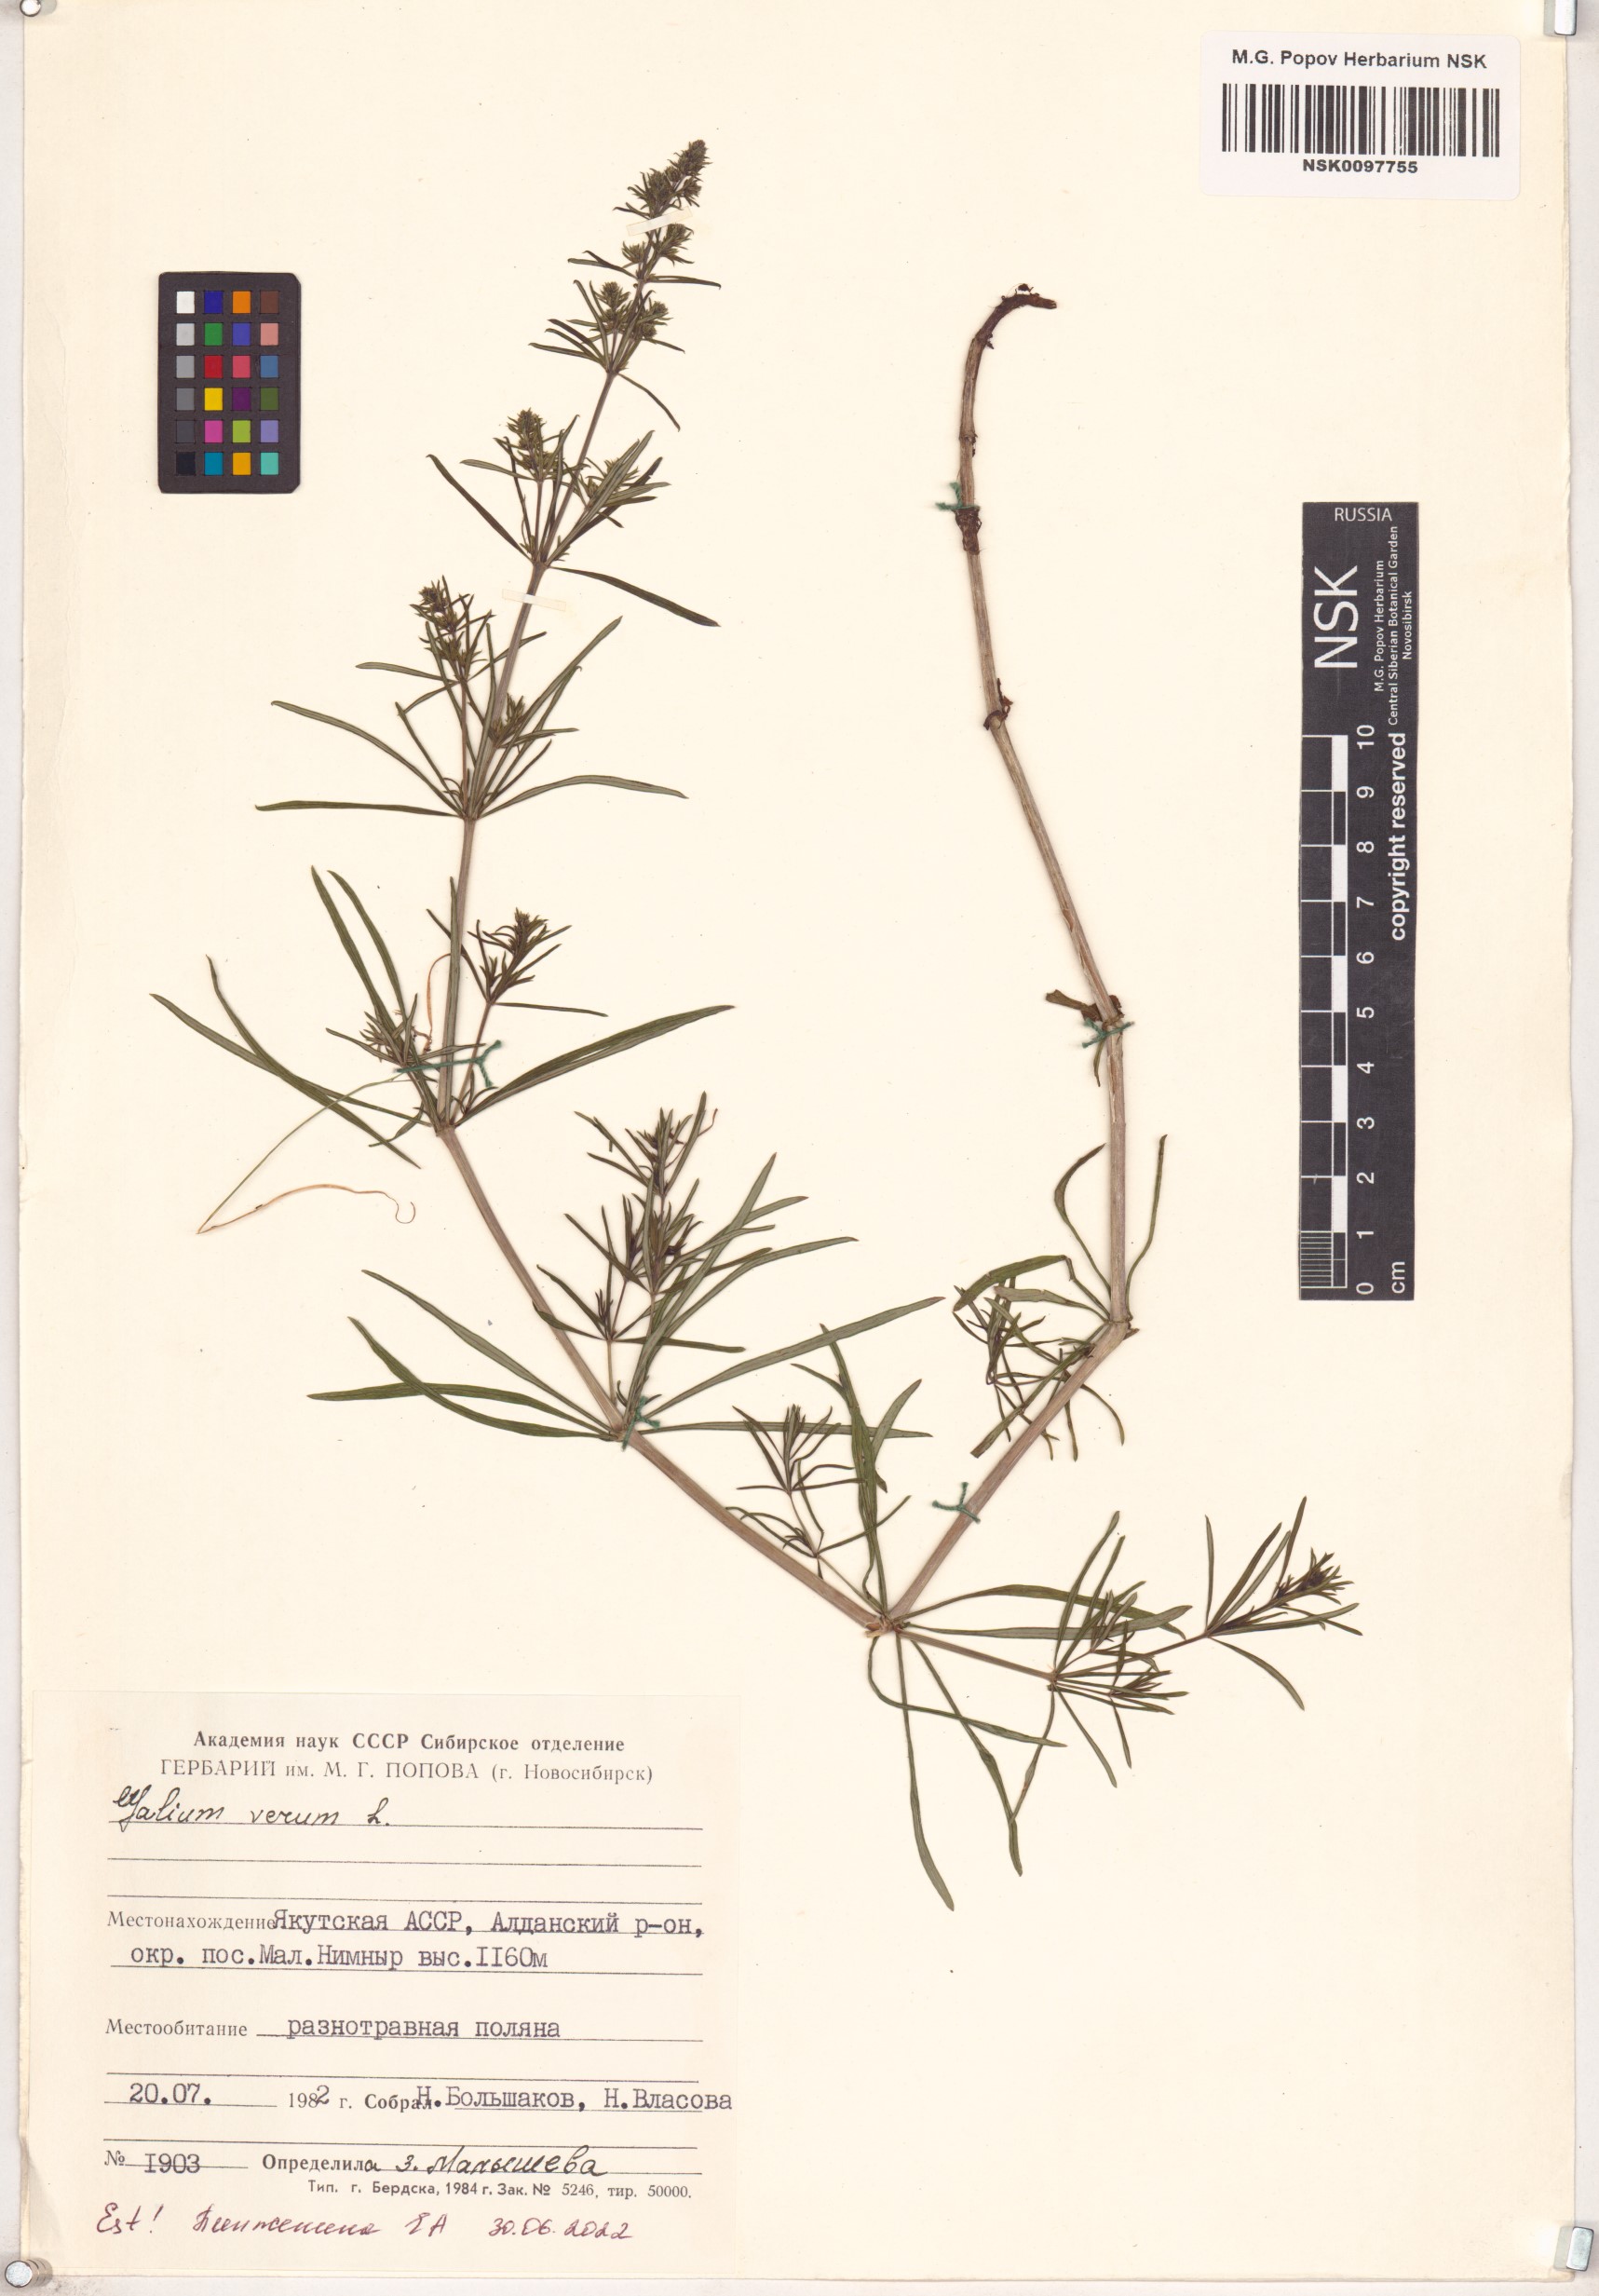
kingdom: Plantae
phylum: Tracheophyta
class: Magnoliopsida
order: Gentianales
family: Rubiaceae
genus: Galium
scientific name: Galium verum
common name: Lady's bedstraw
